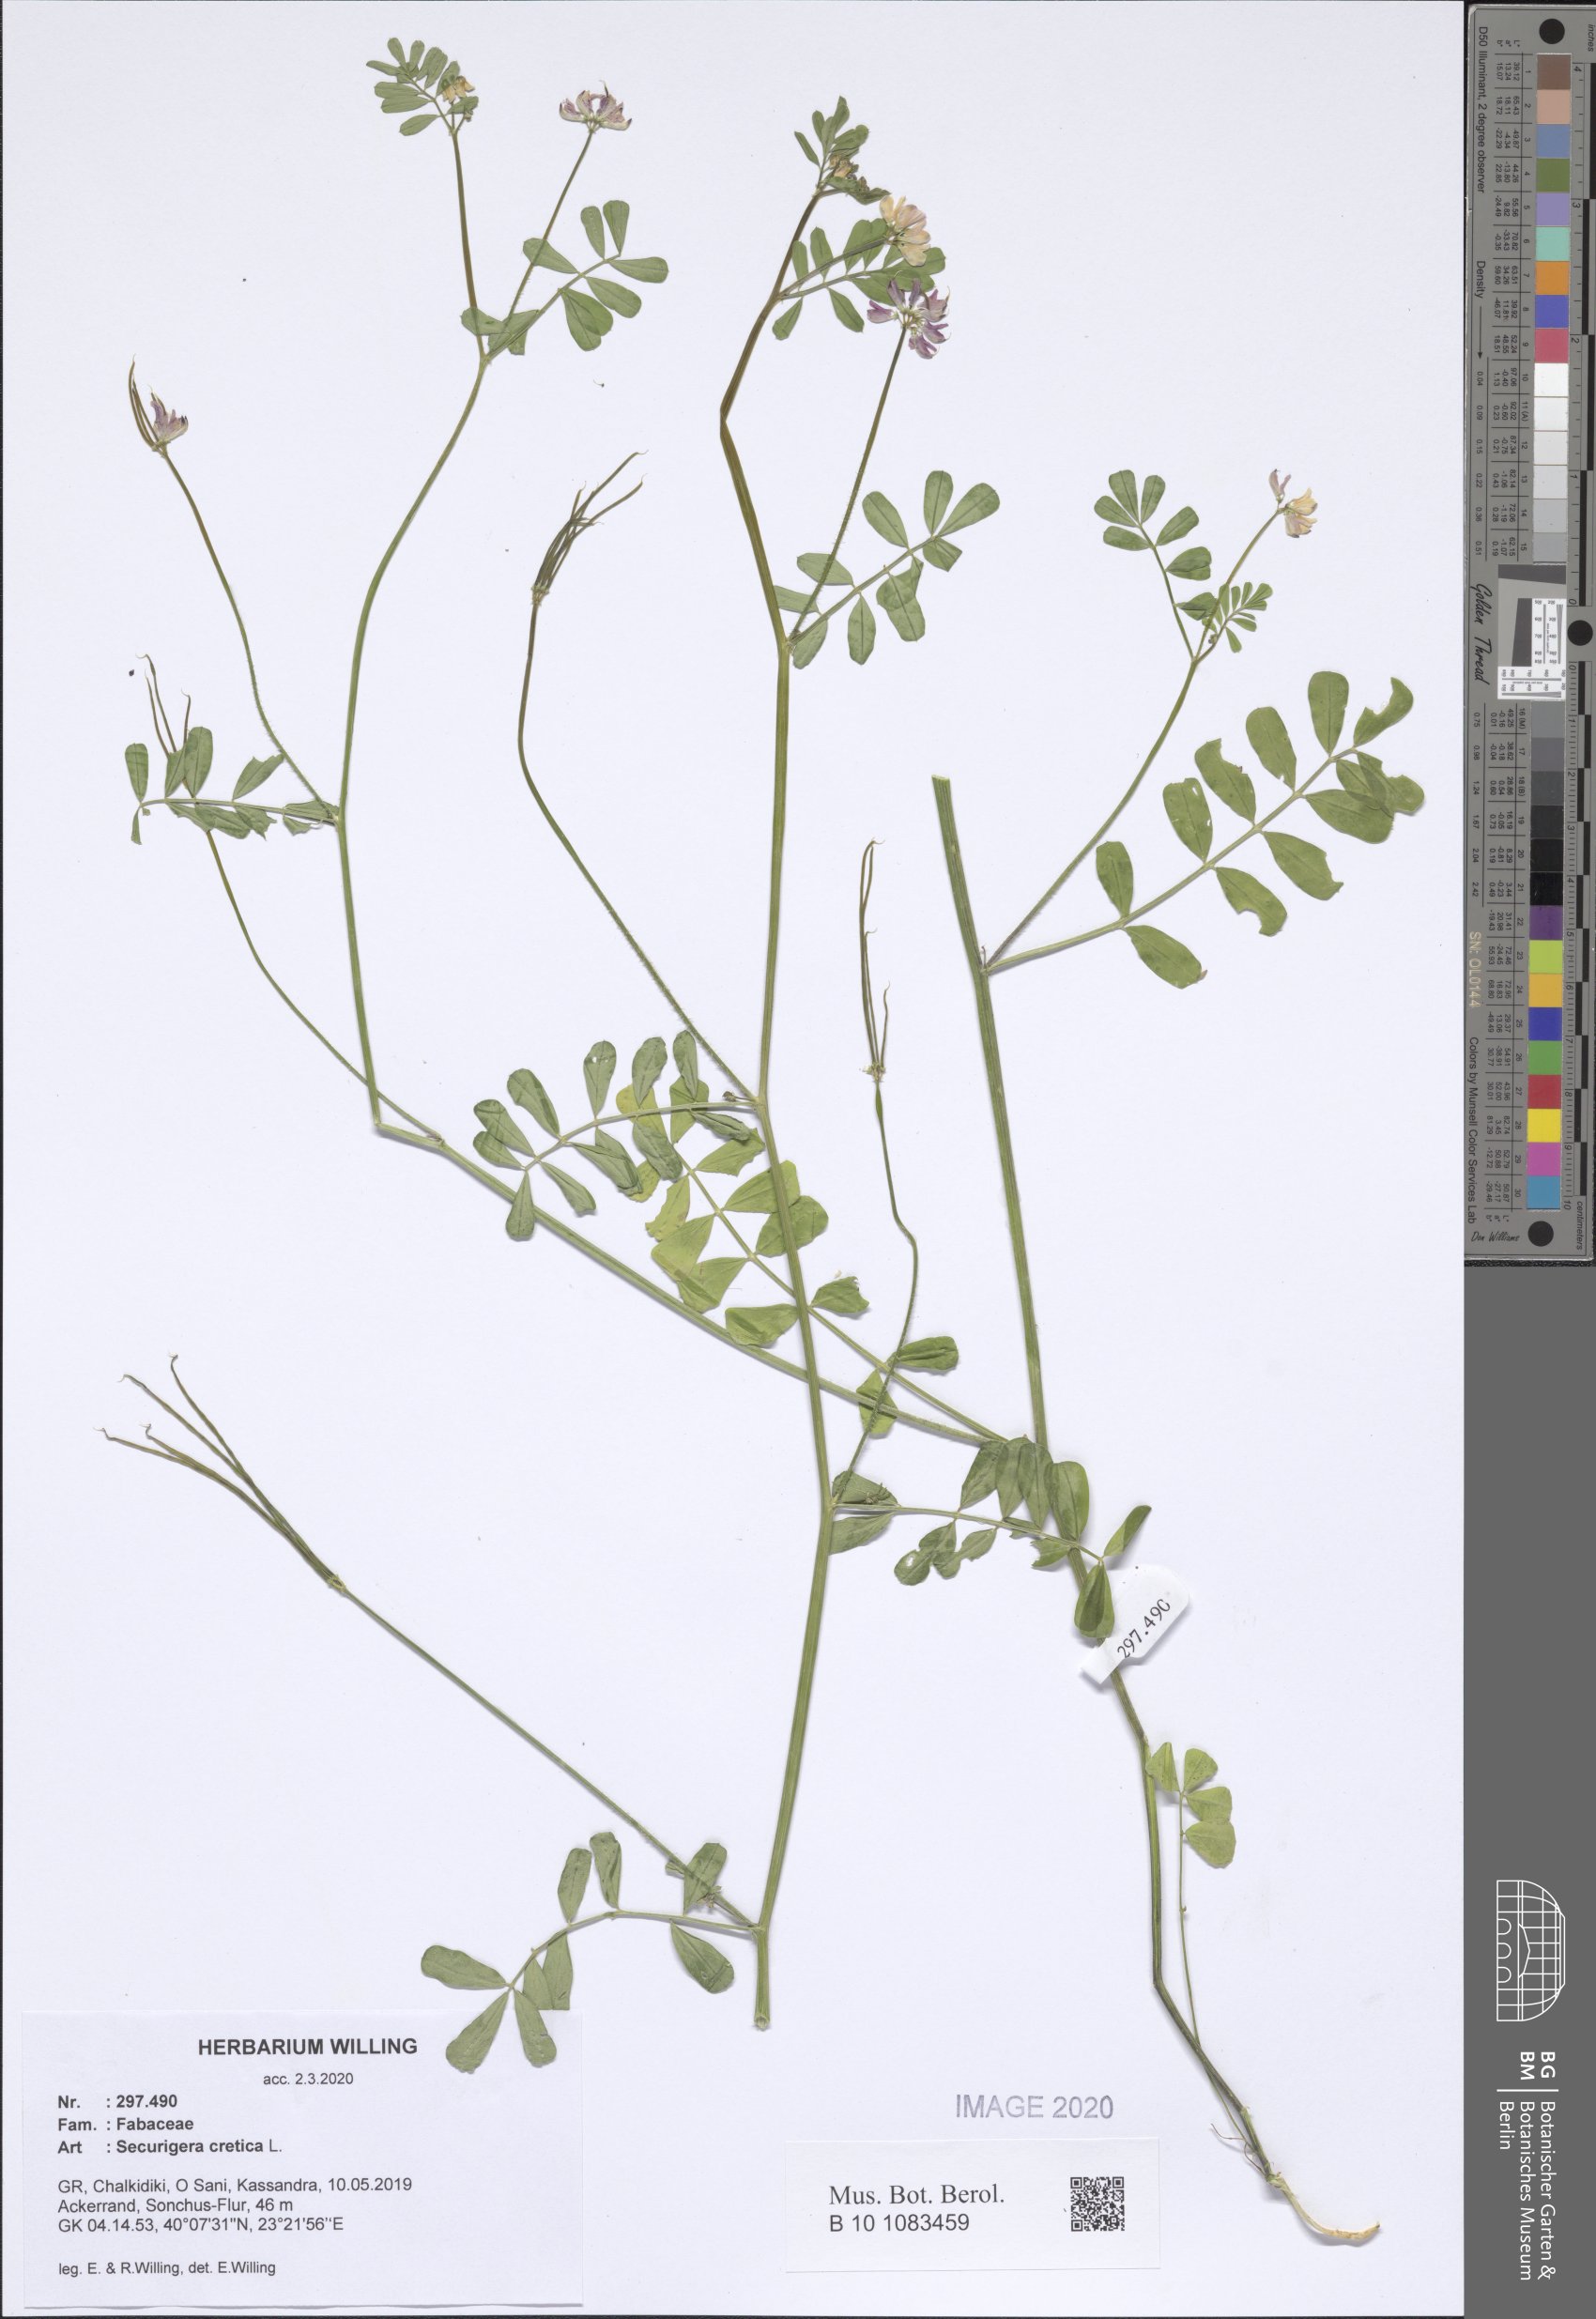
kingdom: Plantae
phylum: Tracheophyta
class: Magnoliopsida
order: Fabales
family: Fabaceae
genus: Coronilla
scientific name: Coronilla cretica
